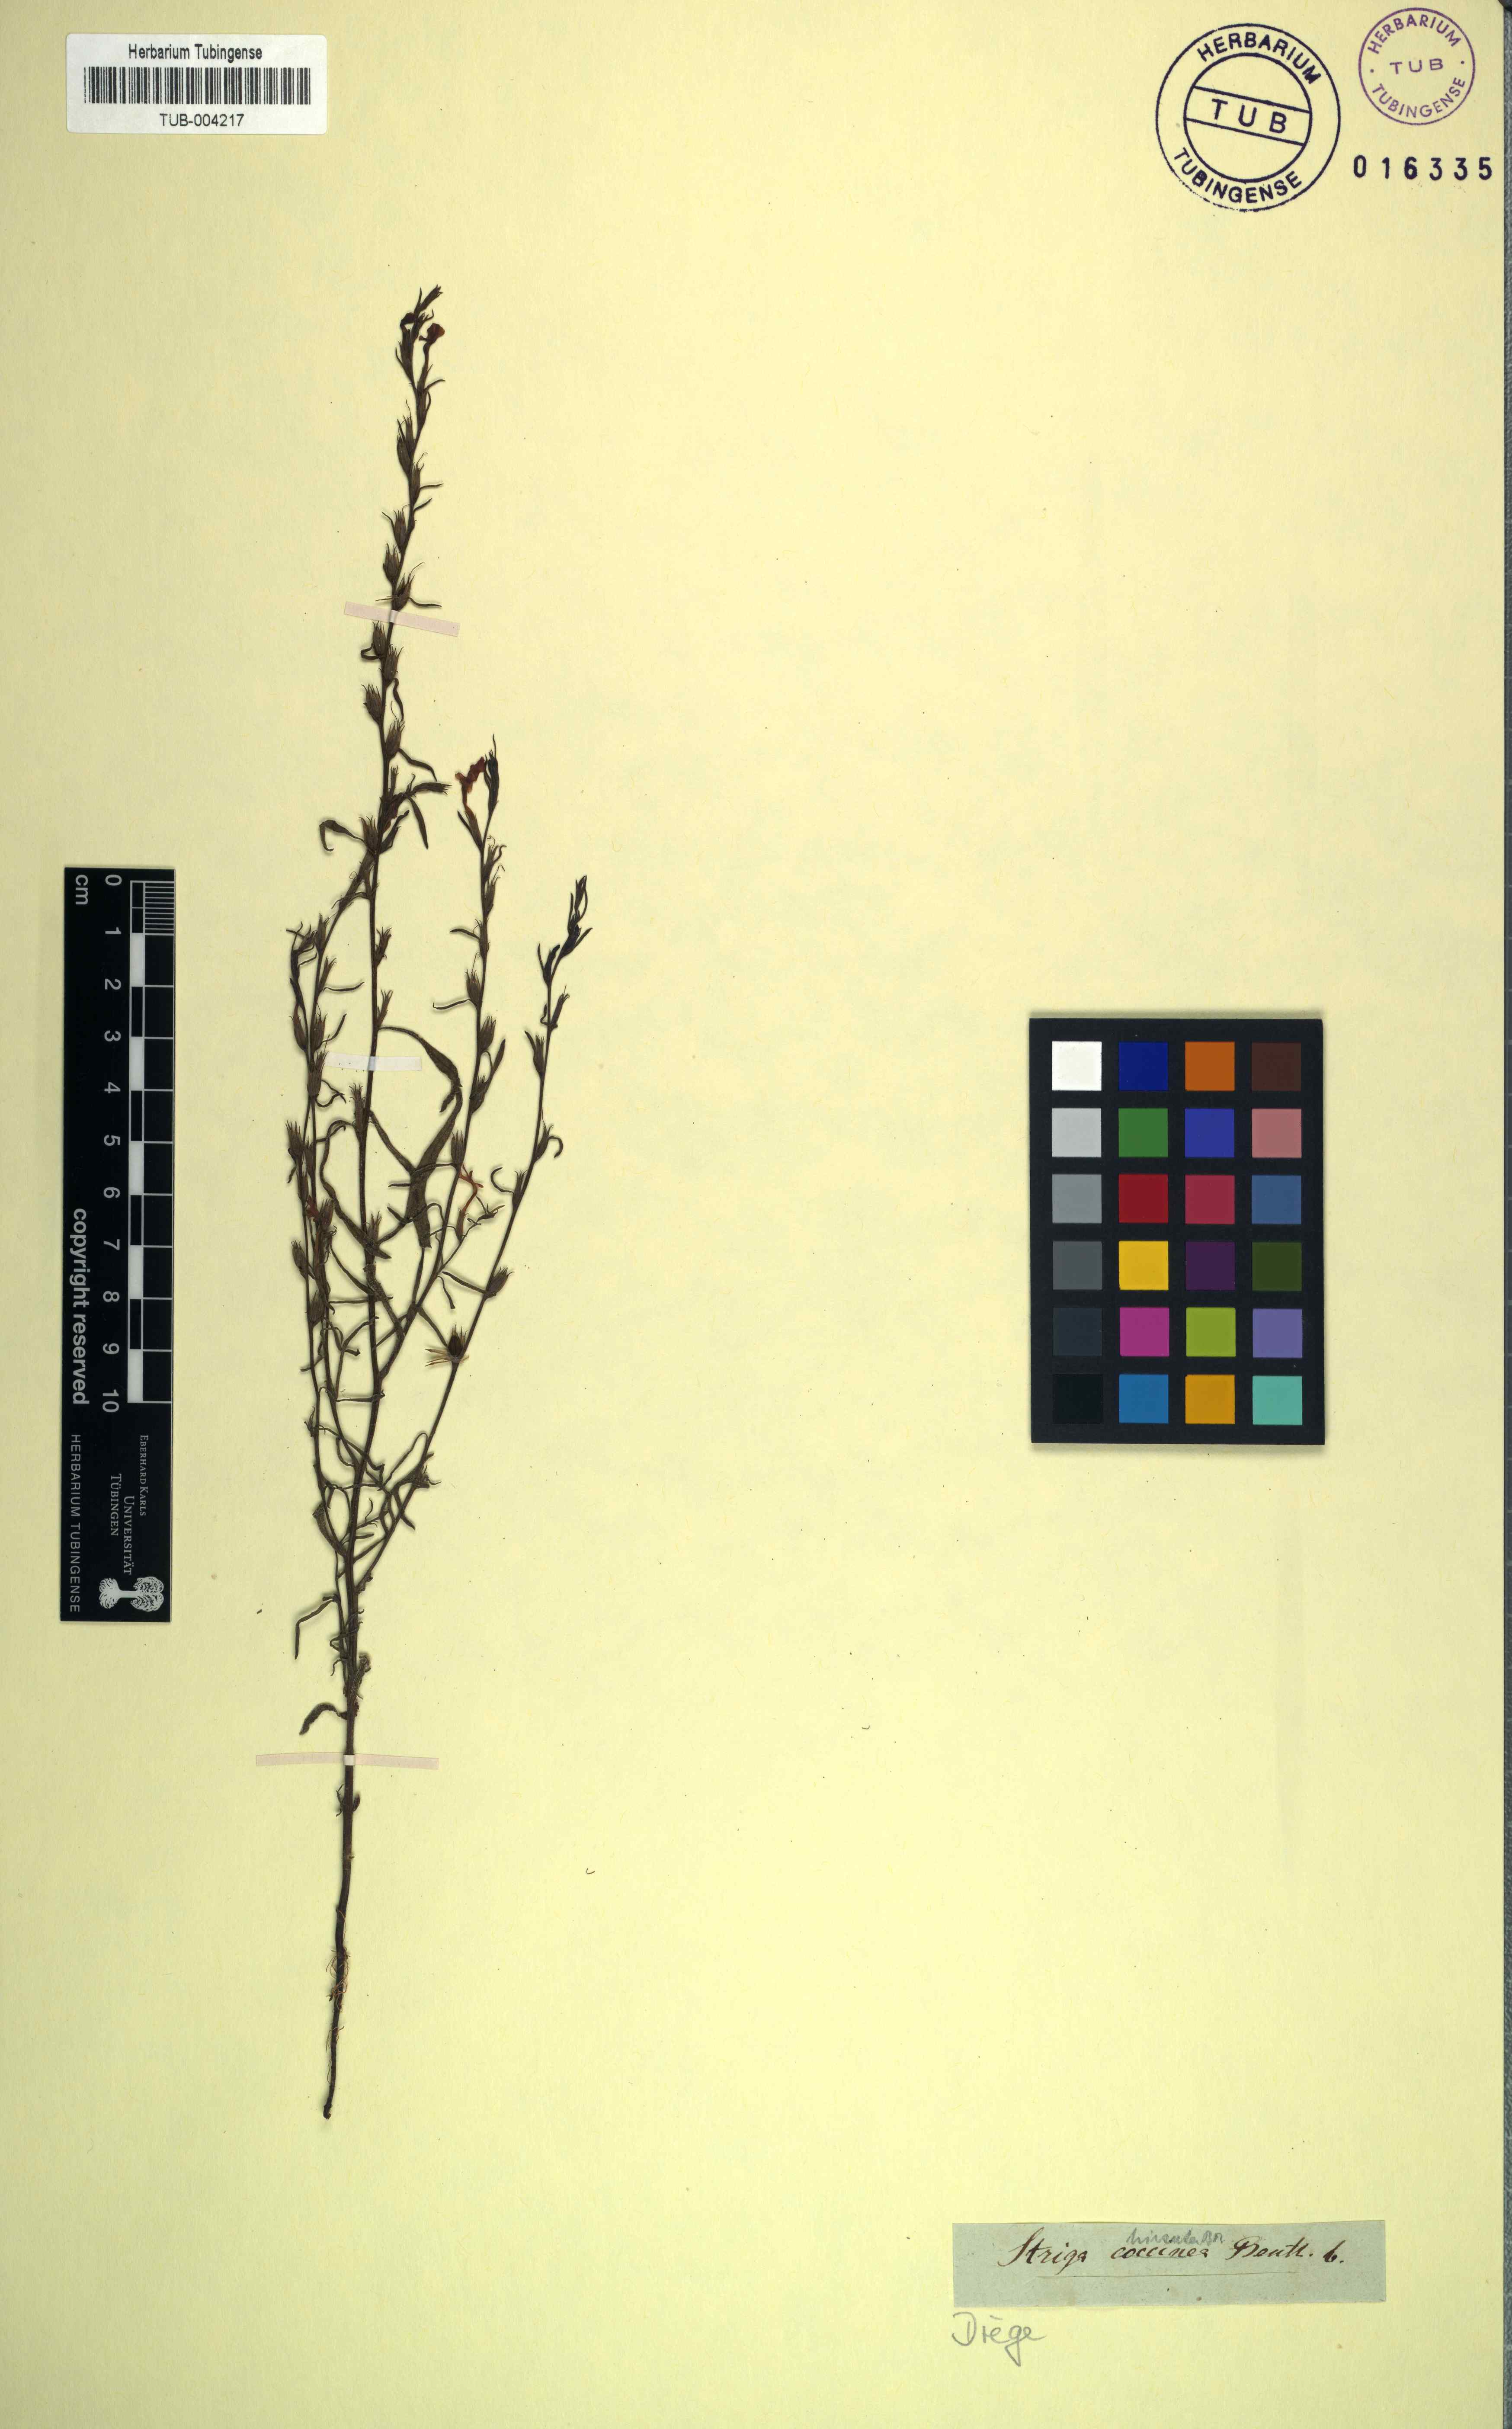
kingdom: Plantae
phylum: Tracheophyta
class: Magnoliopsida
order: Lamiales
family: Orobanchaceae
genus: Striga
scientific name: Striga lutea
